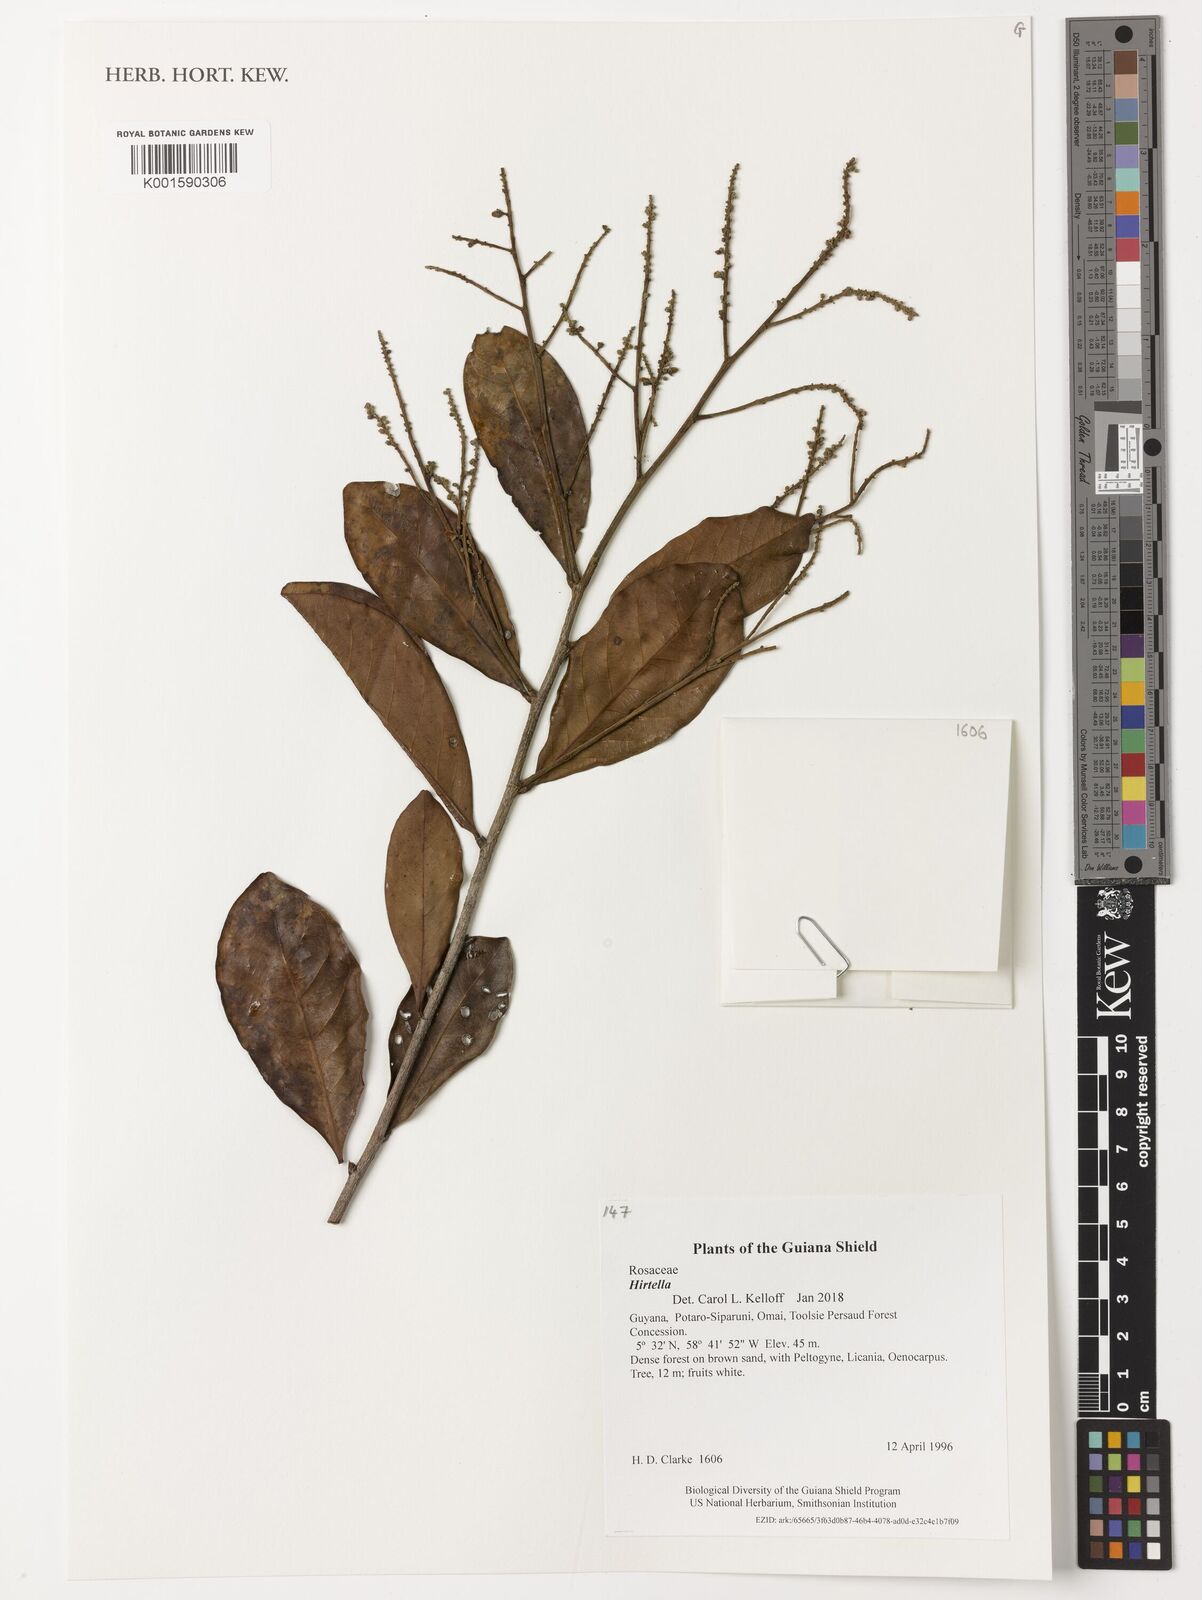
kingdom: Plantae
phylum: Tracheophyta
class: Magnoliopsida
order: Malpighiales
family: Chrysobalanaceae
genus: Hirtella
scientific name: Hirtella
